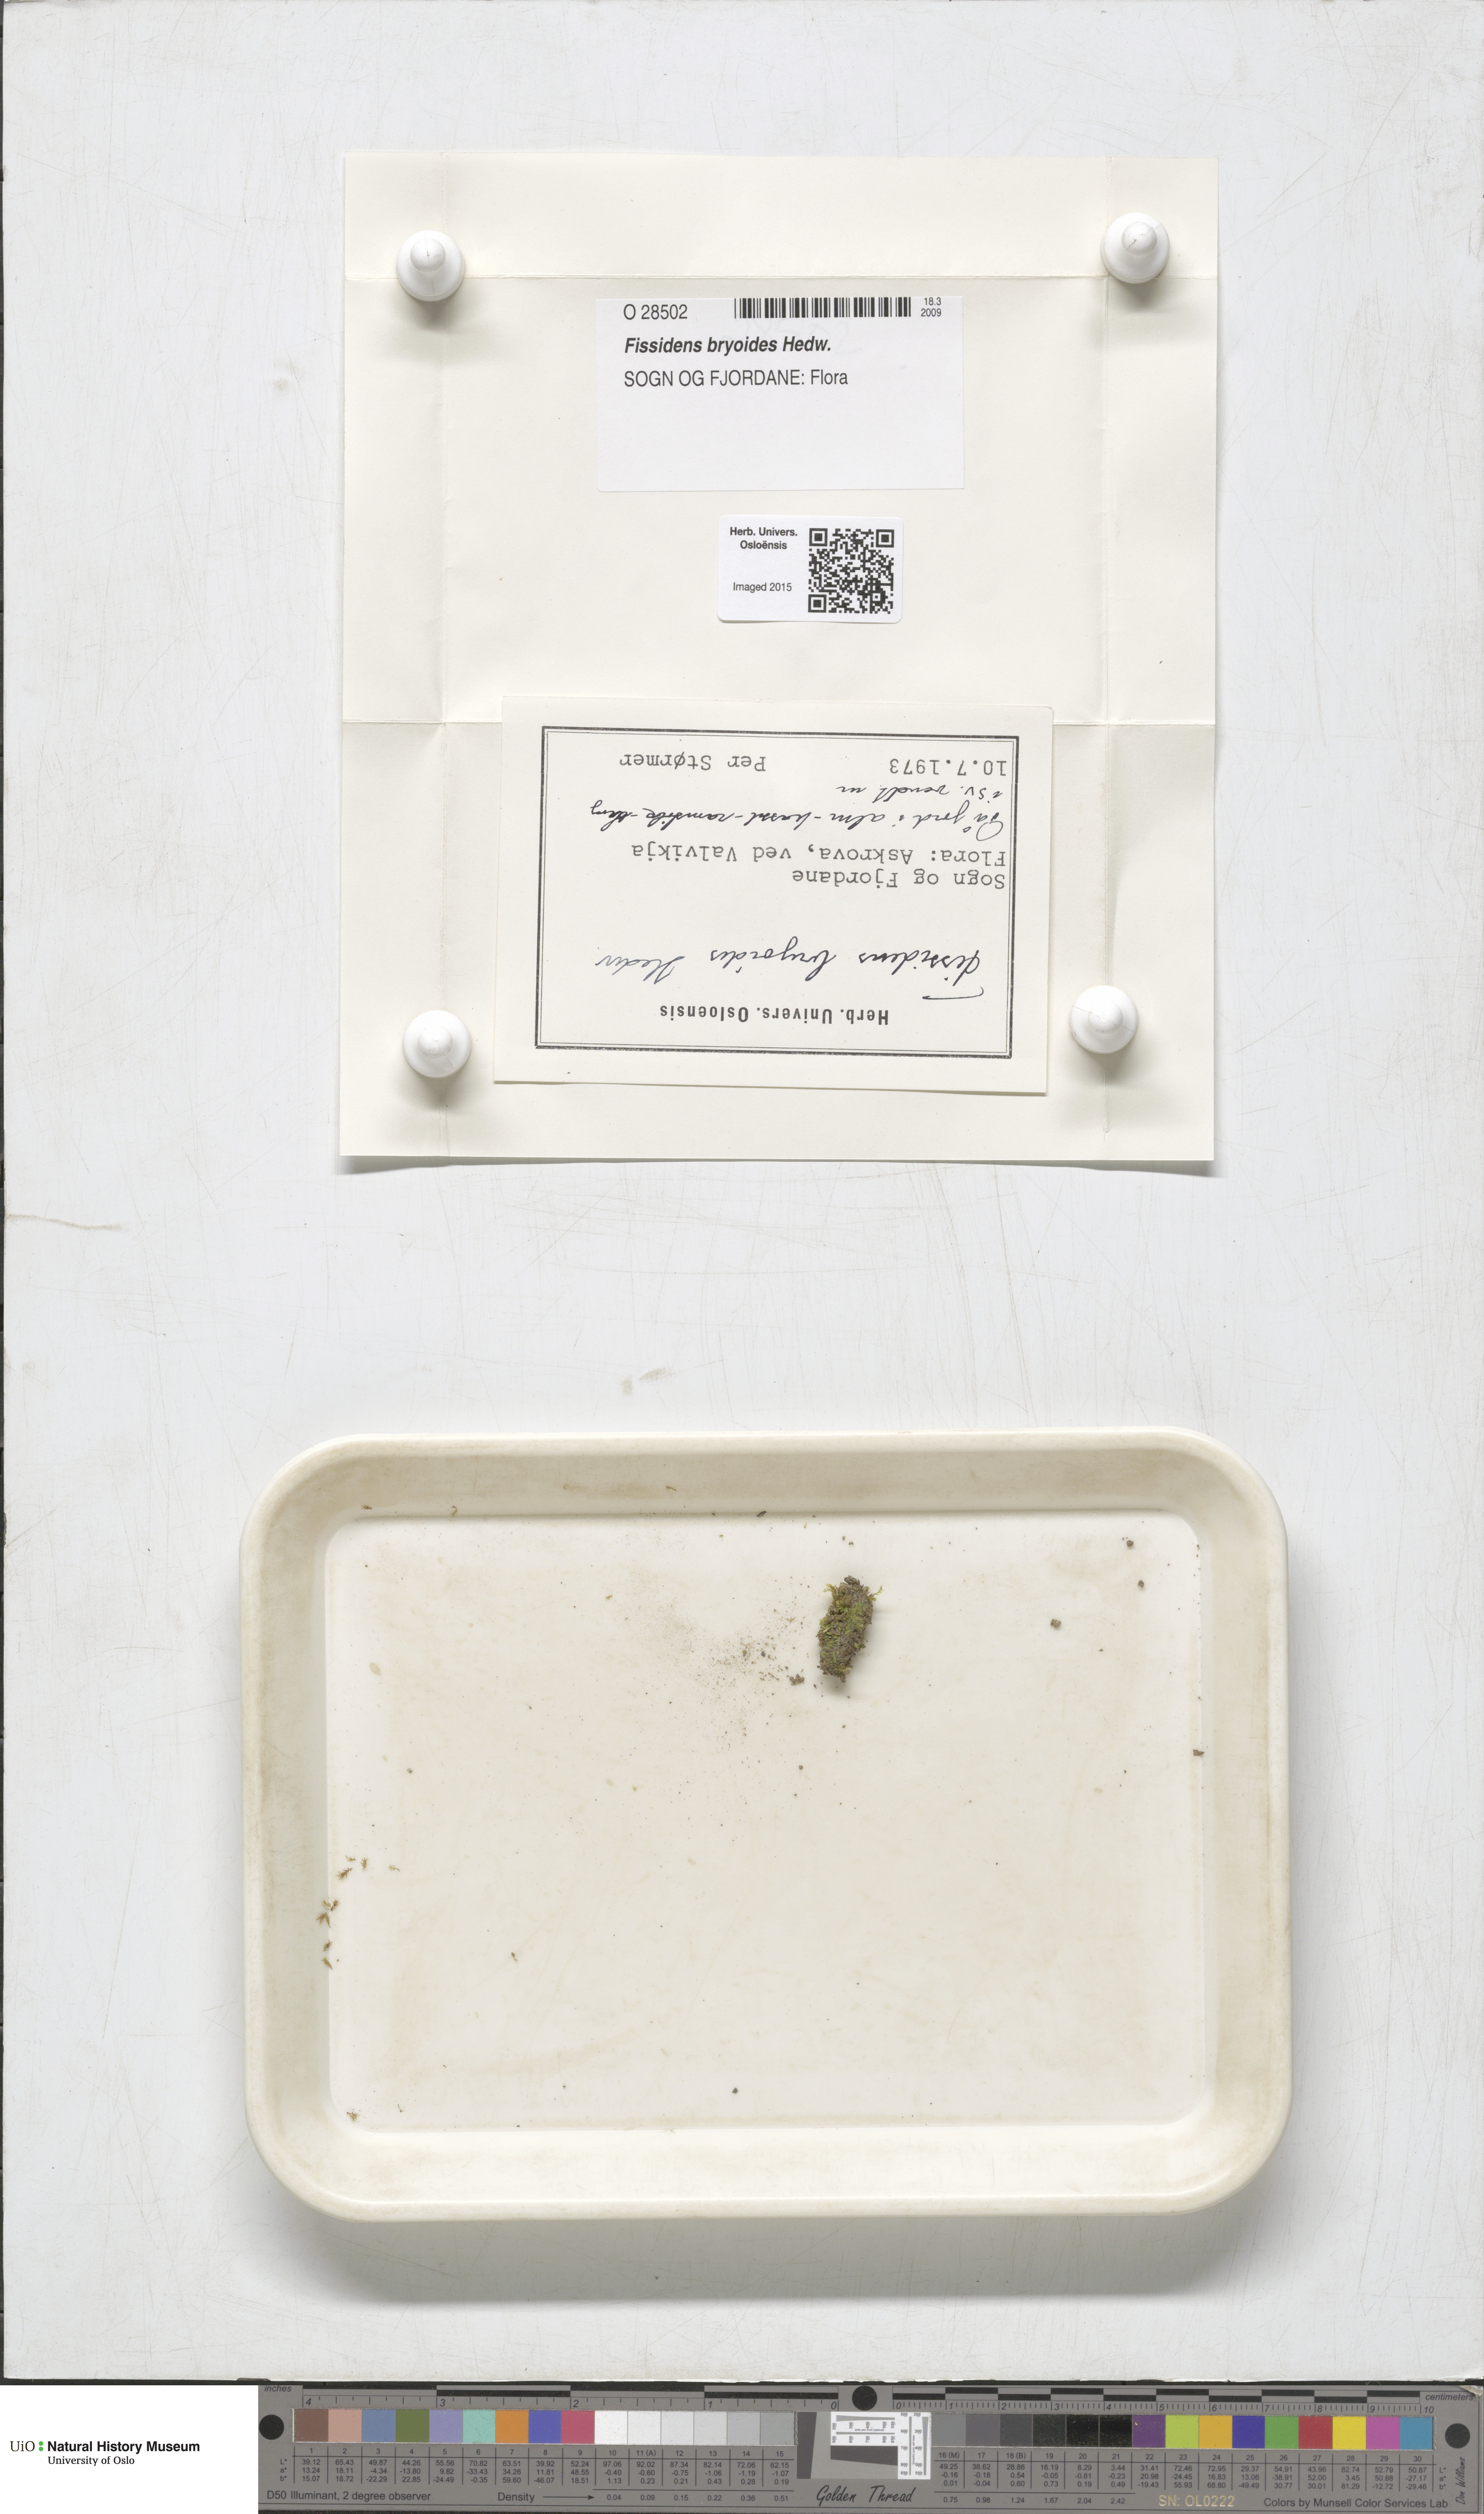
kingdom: Plantae
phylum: Bryophyta
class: Bryopsida
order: Dicranales
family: Fissidentaceae
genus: Fissidens
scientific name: Fissidens bryoides
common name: Lesser pocket moss
